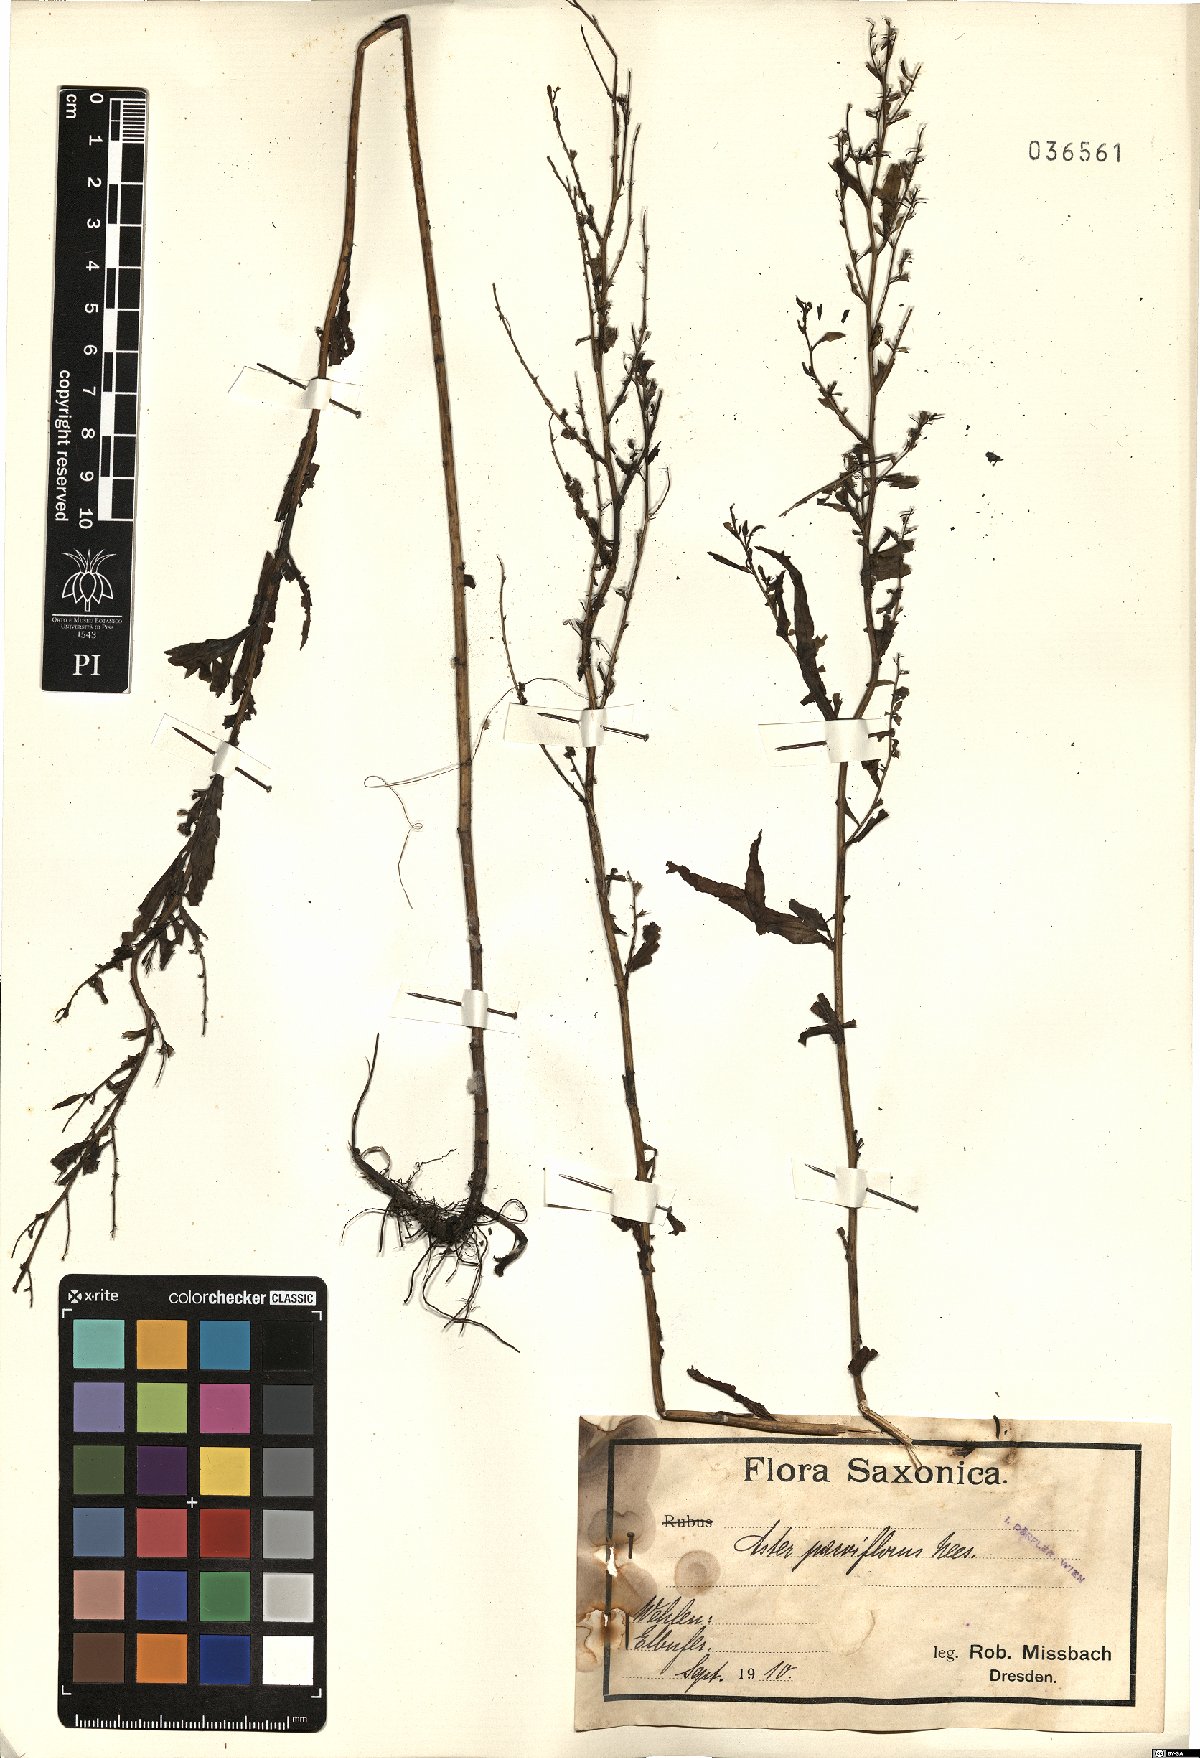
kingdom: Plantae
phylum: Tracheophyta
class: Magnoliopsida
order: Asterales
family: Asteraceae
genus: Symphyotrichum
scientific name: Symphyotrichum expansum
